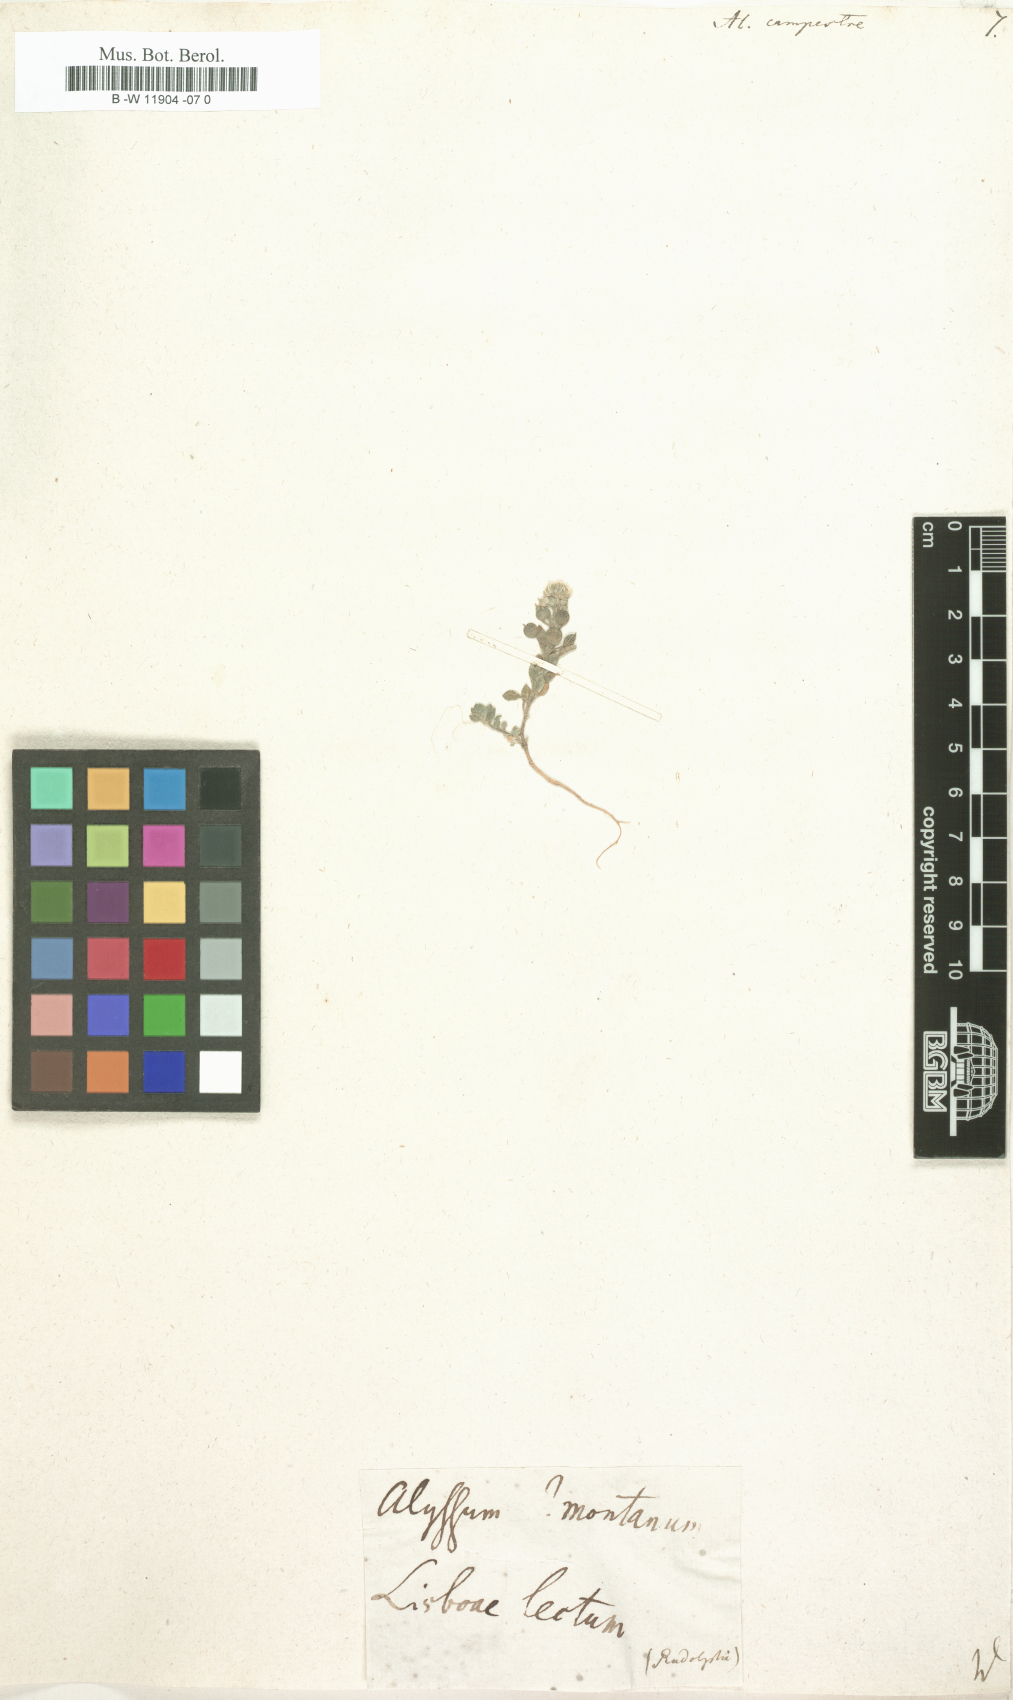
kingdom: Plantae
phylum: Tracheophyta
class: Magnoliopsida
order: Brassicales
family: Brassicaceae
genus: Alyssum
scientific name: Alyssum alyssoides
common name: Small alison
